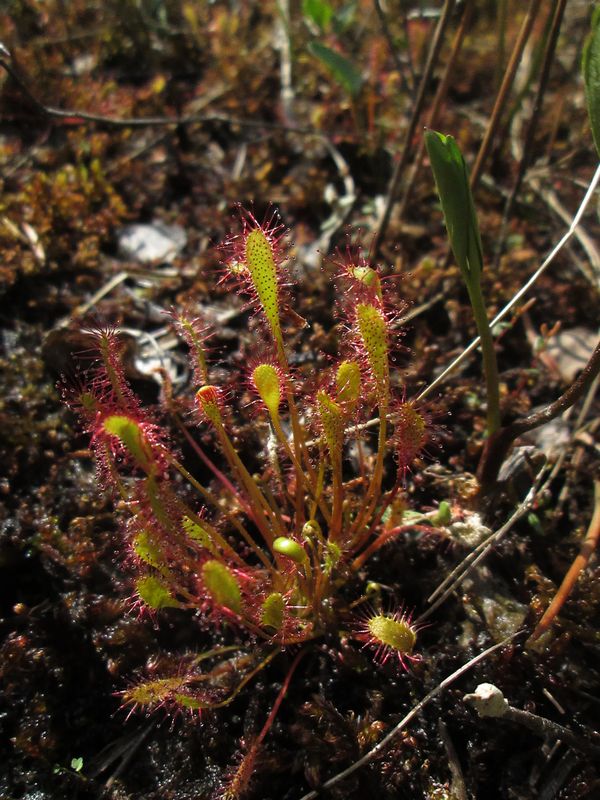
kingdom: Plantae
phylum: Tracheophyta
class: Magnoliopsida
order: Caryophyllales
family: Droseraceae
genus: Drosera
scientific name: Drosera anglica
